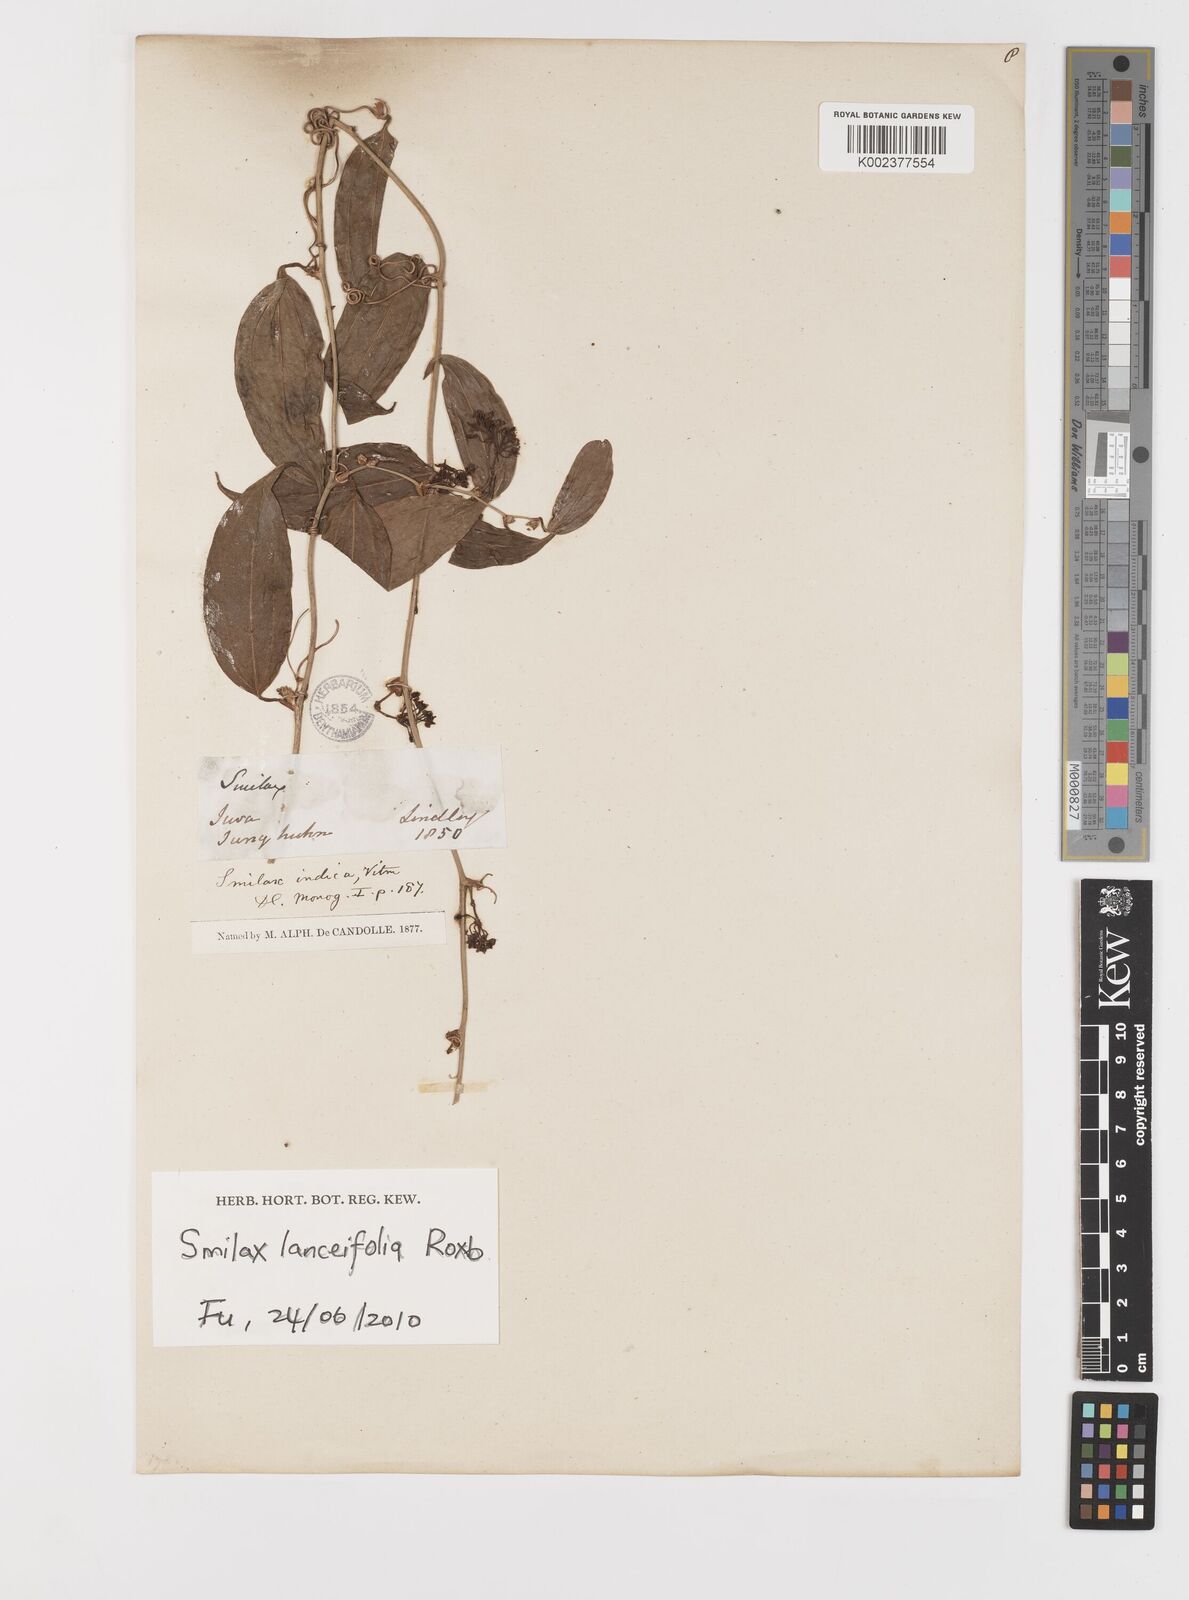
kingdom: Plantae
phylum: Tracheophyta
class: Liliopsida
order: Liliales
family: Smilacaceae
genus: Smilax
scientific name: Smilax lanceifolia
